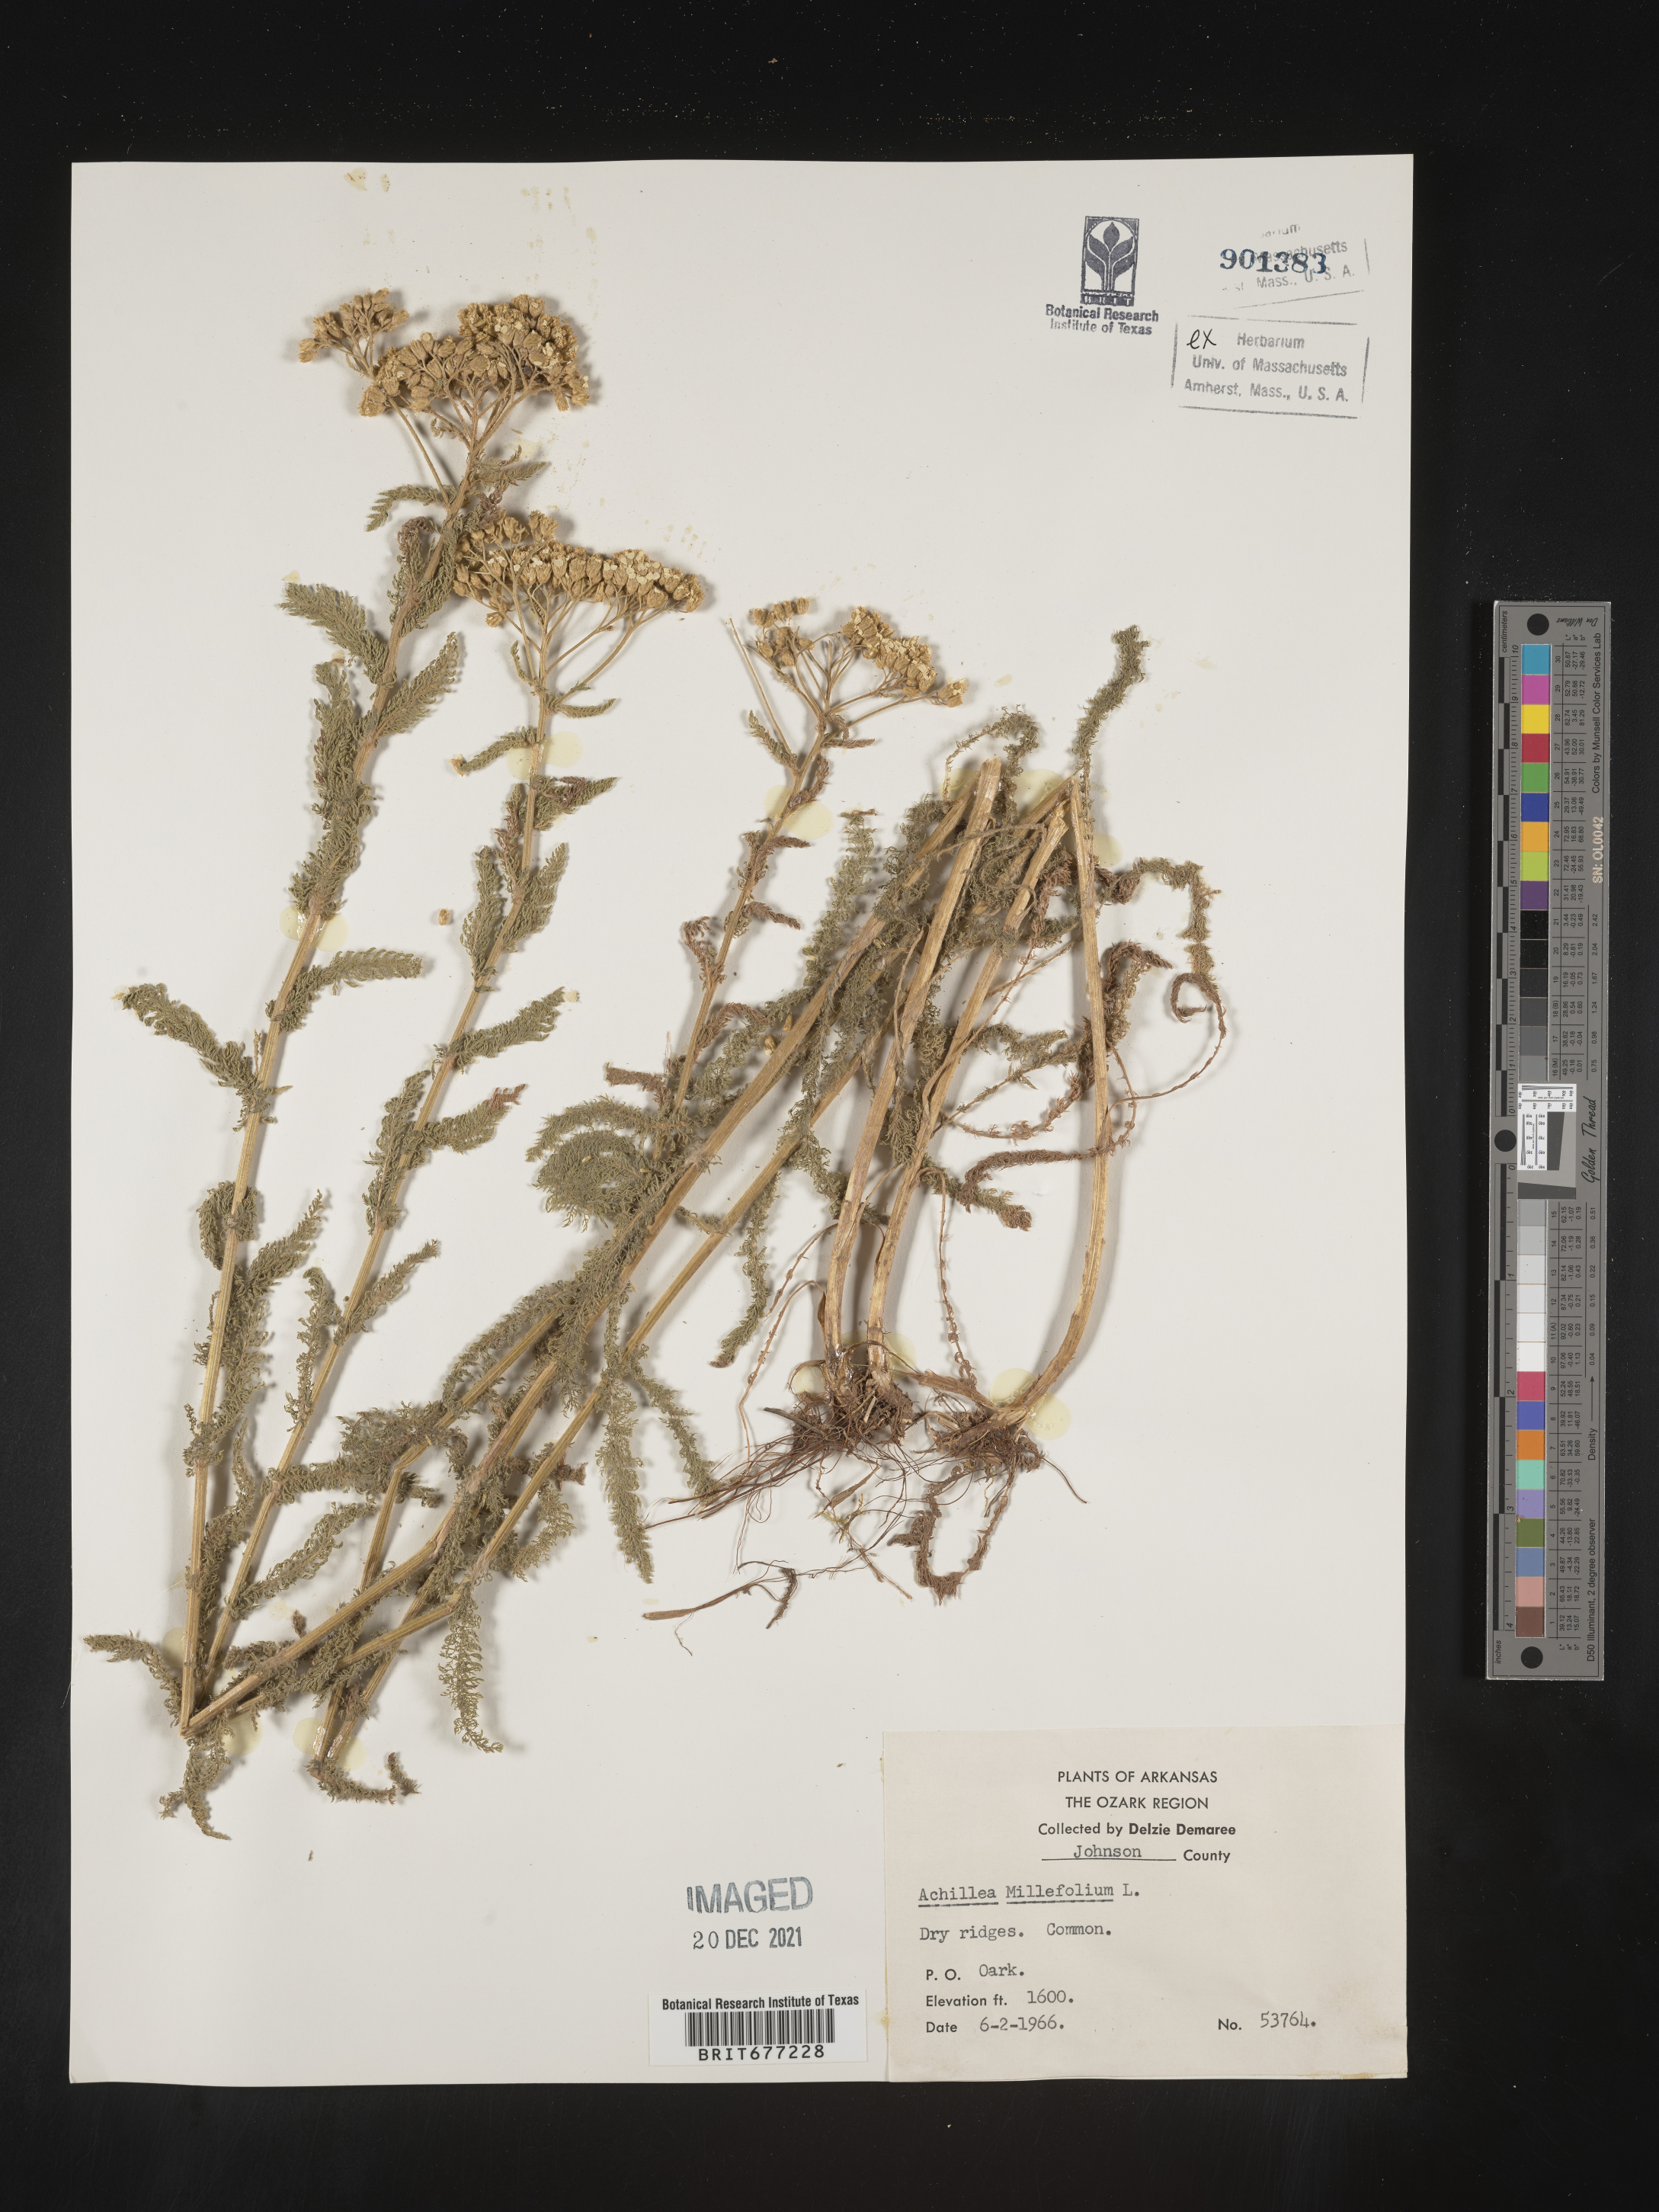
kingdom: Plantae
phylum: Tracheophyta
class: Magnoliopsida
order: Asterales
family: Asteraceae
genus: Achillea
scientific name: Achillea millefolium
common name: Yarrow
